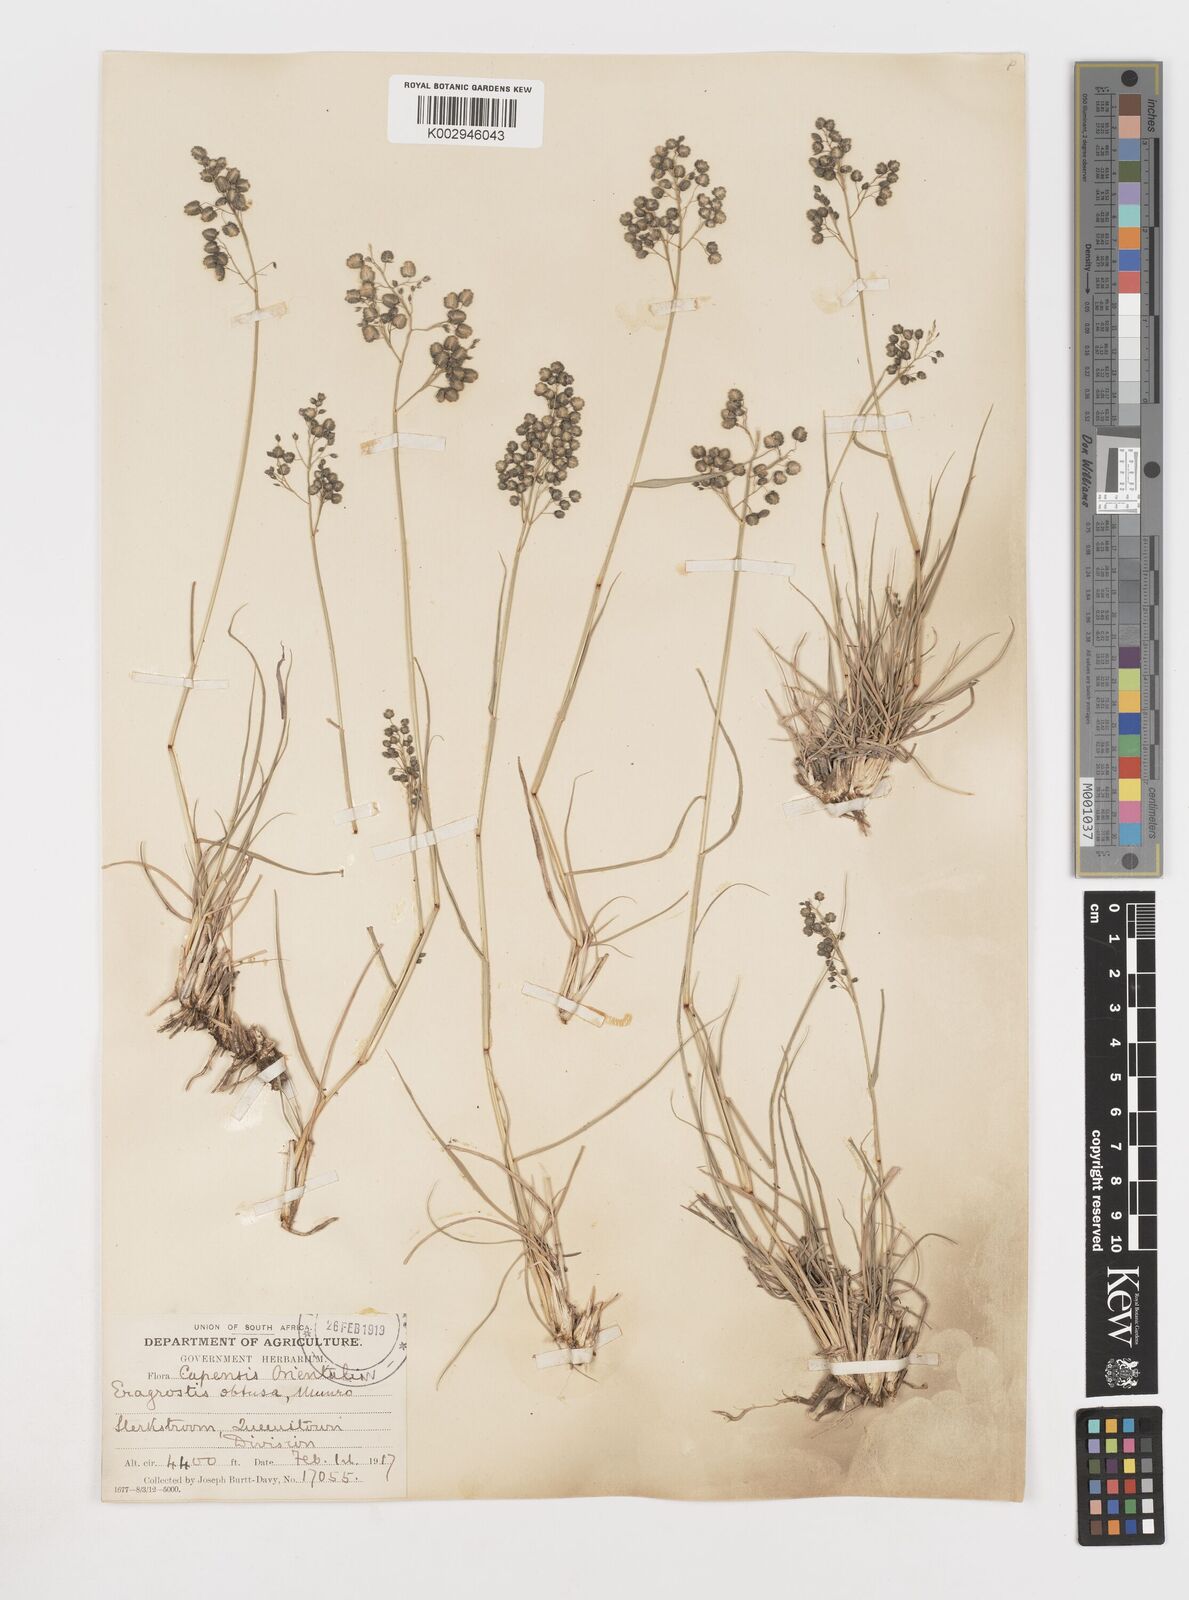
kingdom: Plantae
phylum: Tracheophyta
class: Liliopsida
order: Poales
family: Poaceae
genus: Eragrostis
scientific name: Eragrostis obtusa
